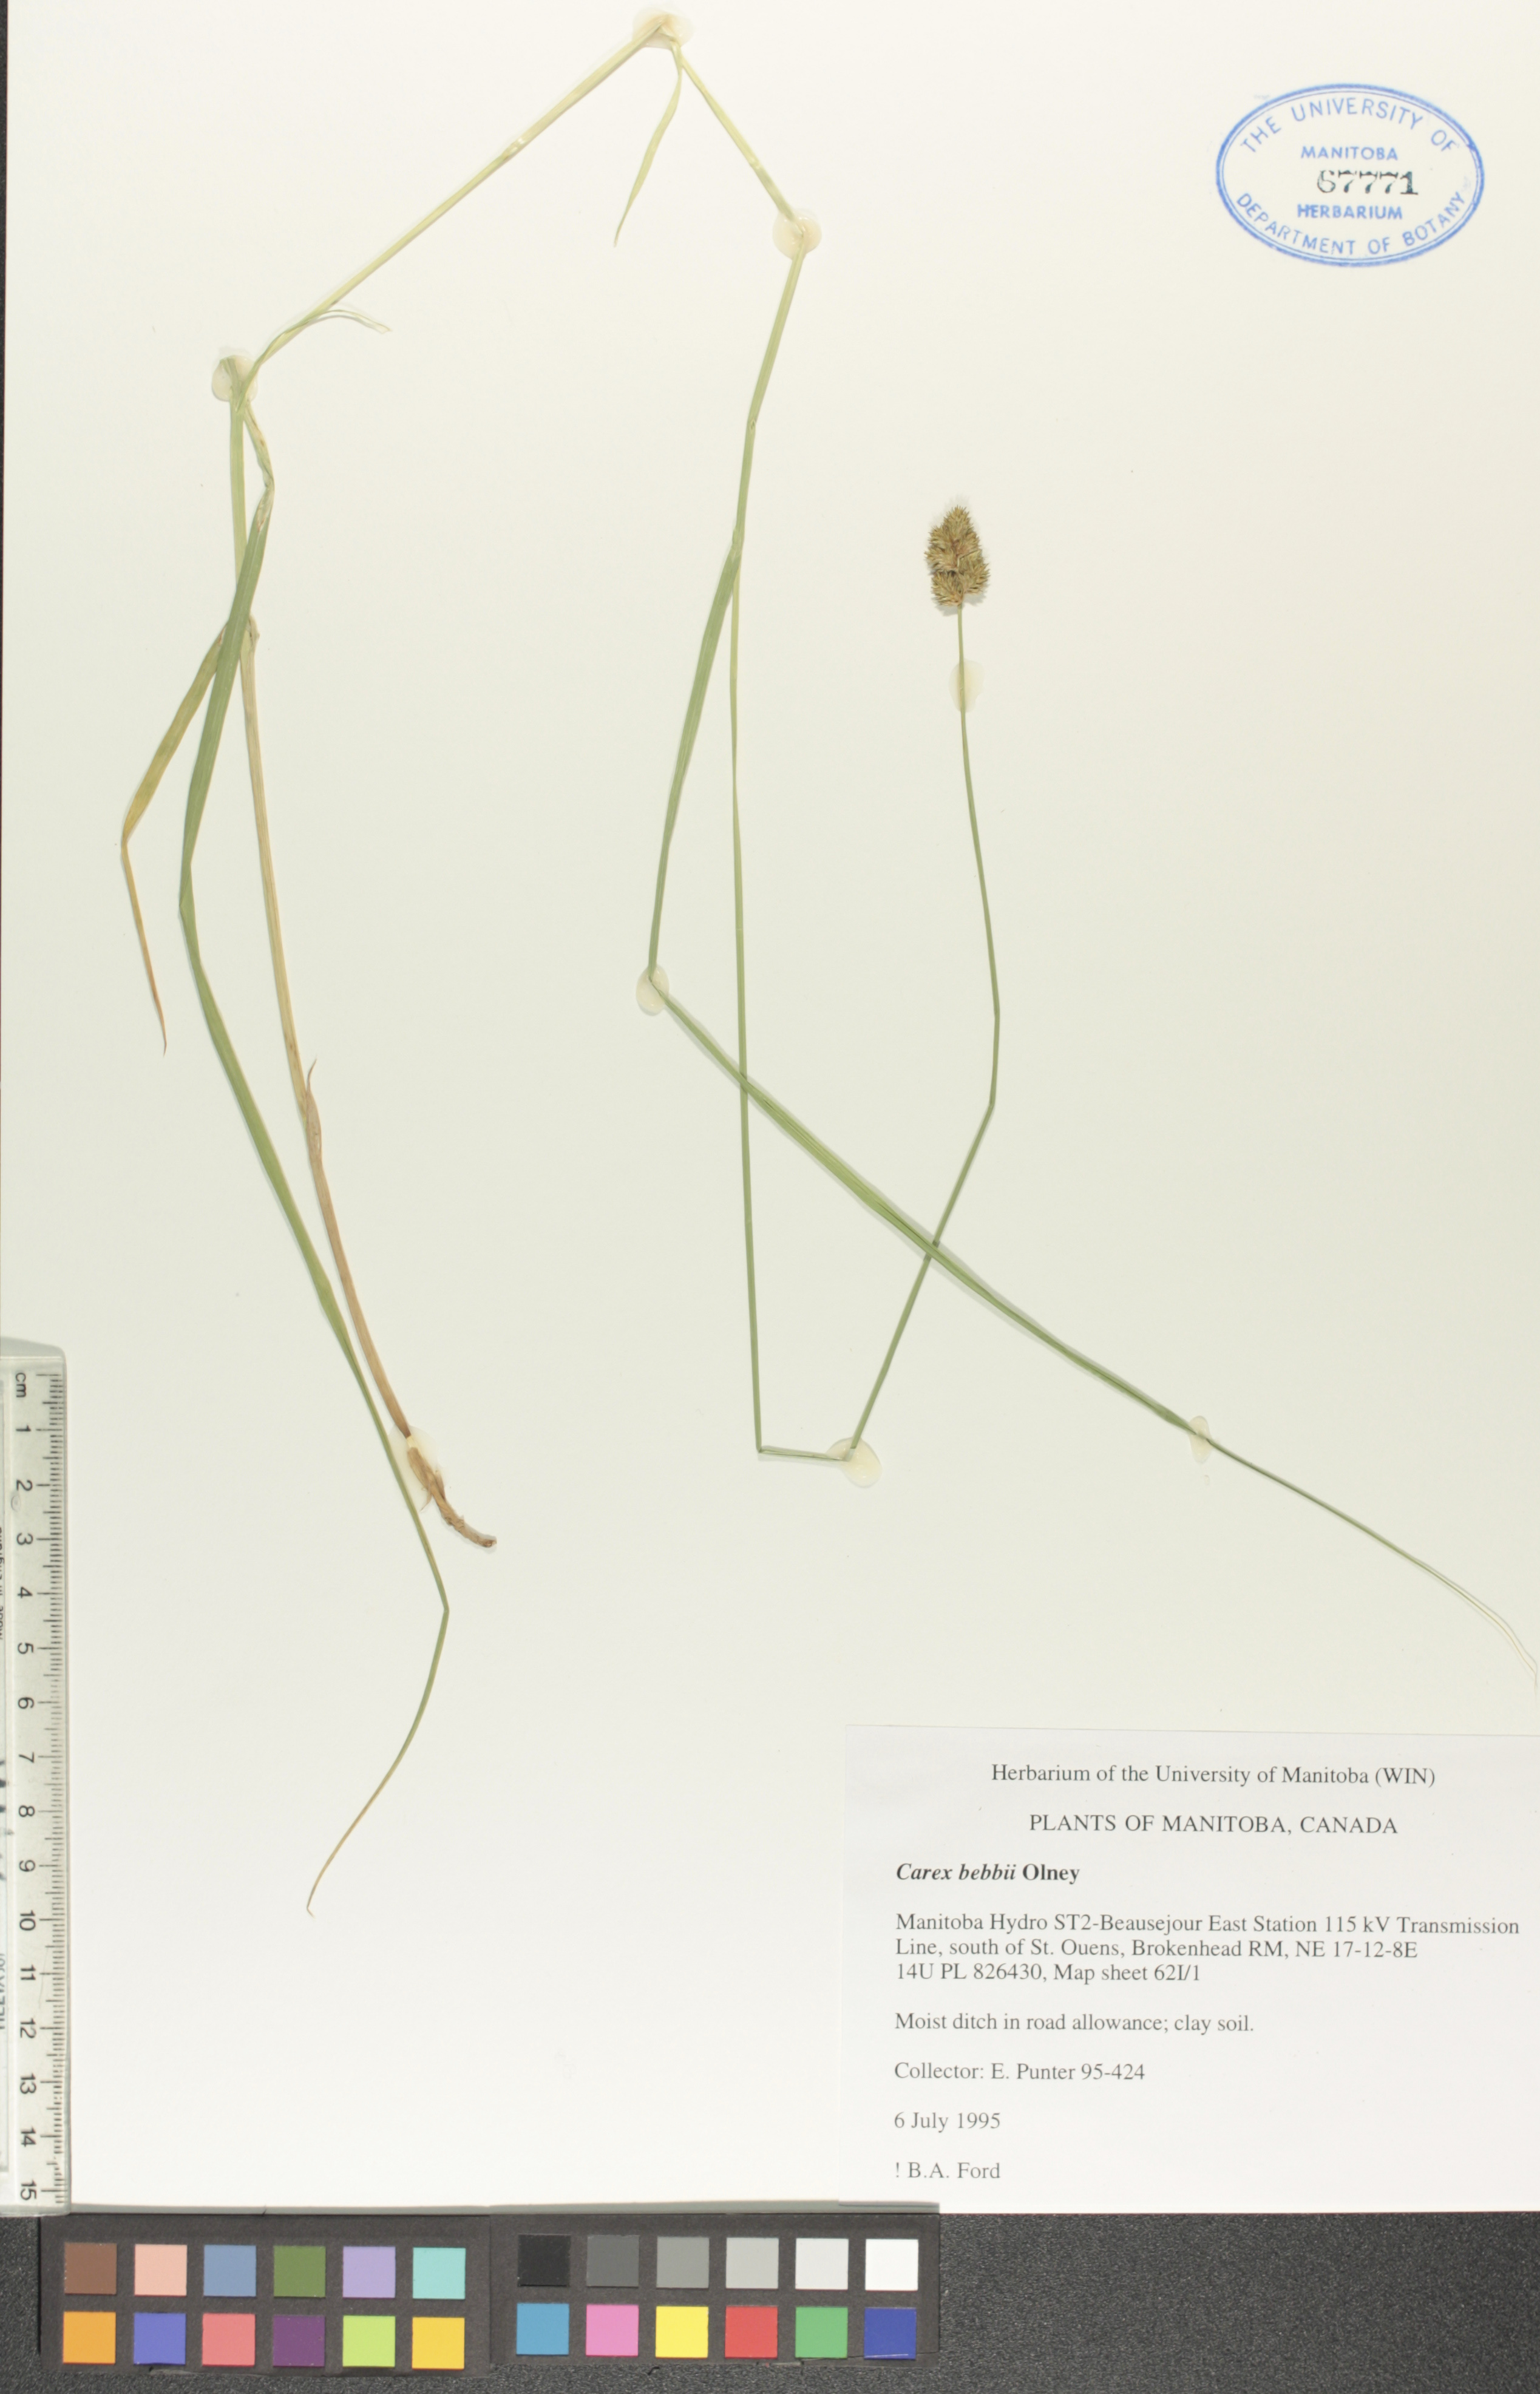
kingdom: Plantae
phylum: Tracheophyta
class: Liliopsida
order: Poales
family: Cyperaceae
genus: Carex
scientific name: Carex bebbii
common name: Bebb's sedge
